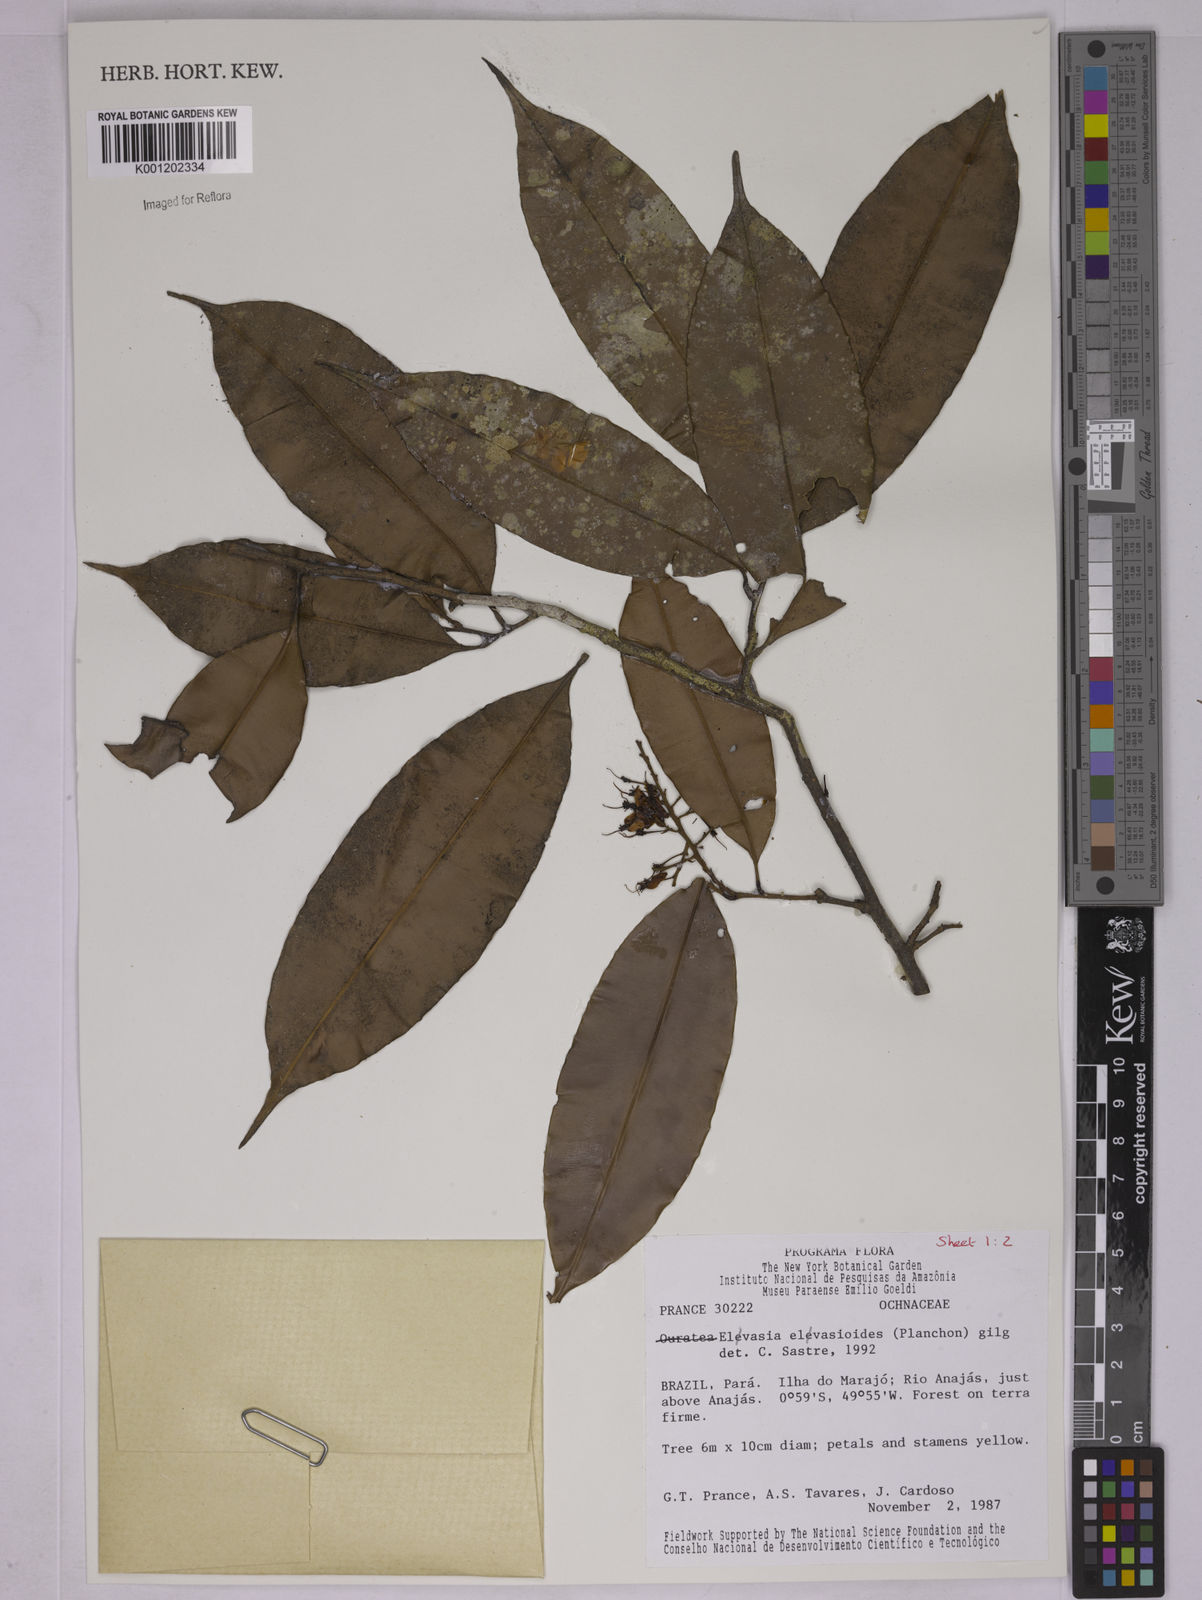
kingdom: Plantae
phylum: Tracheophyta
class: Magnoliopsida
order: Malpighiales
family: Ochnaceae
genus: Elvasia
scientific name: Elvasia elvasioides
